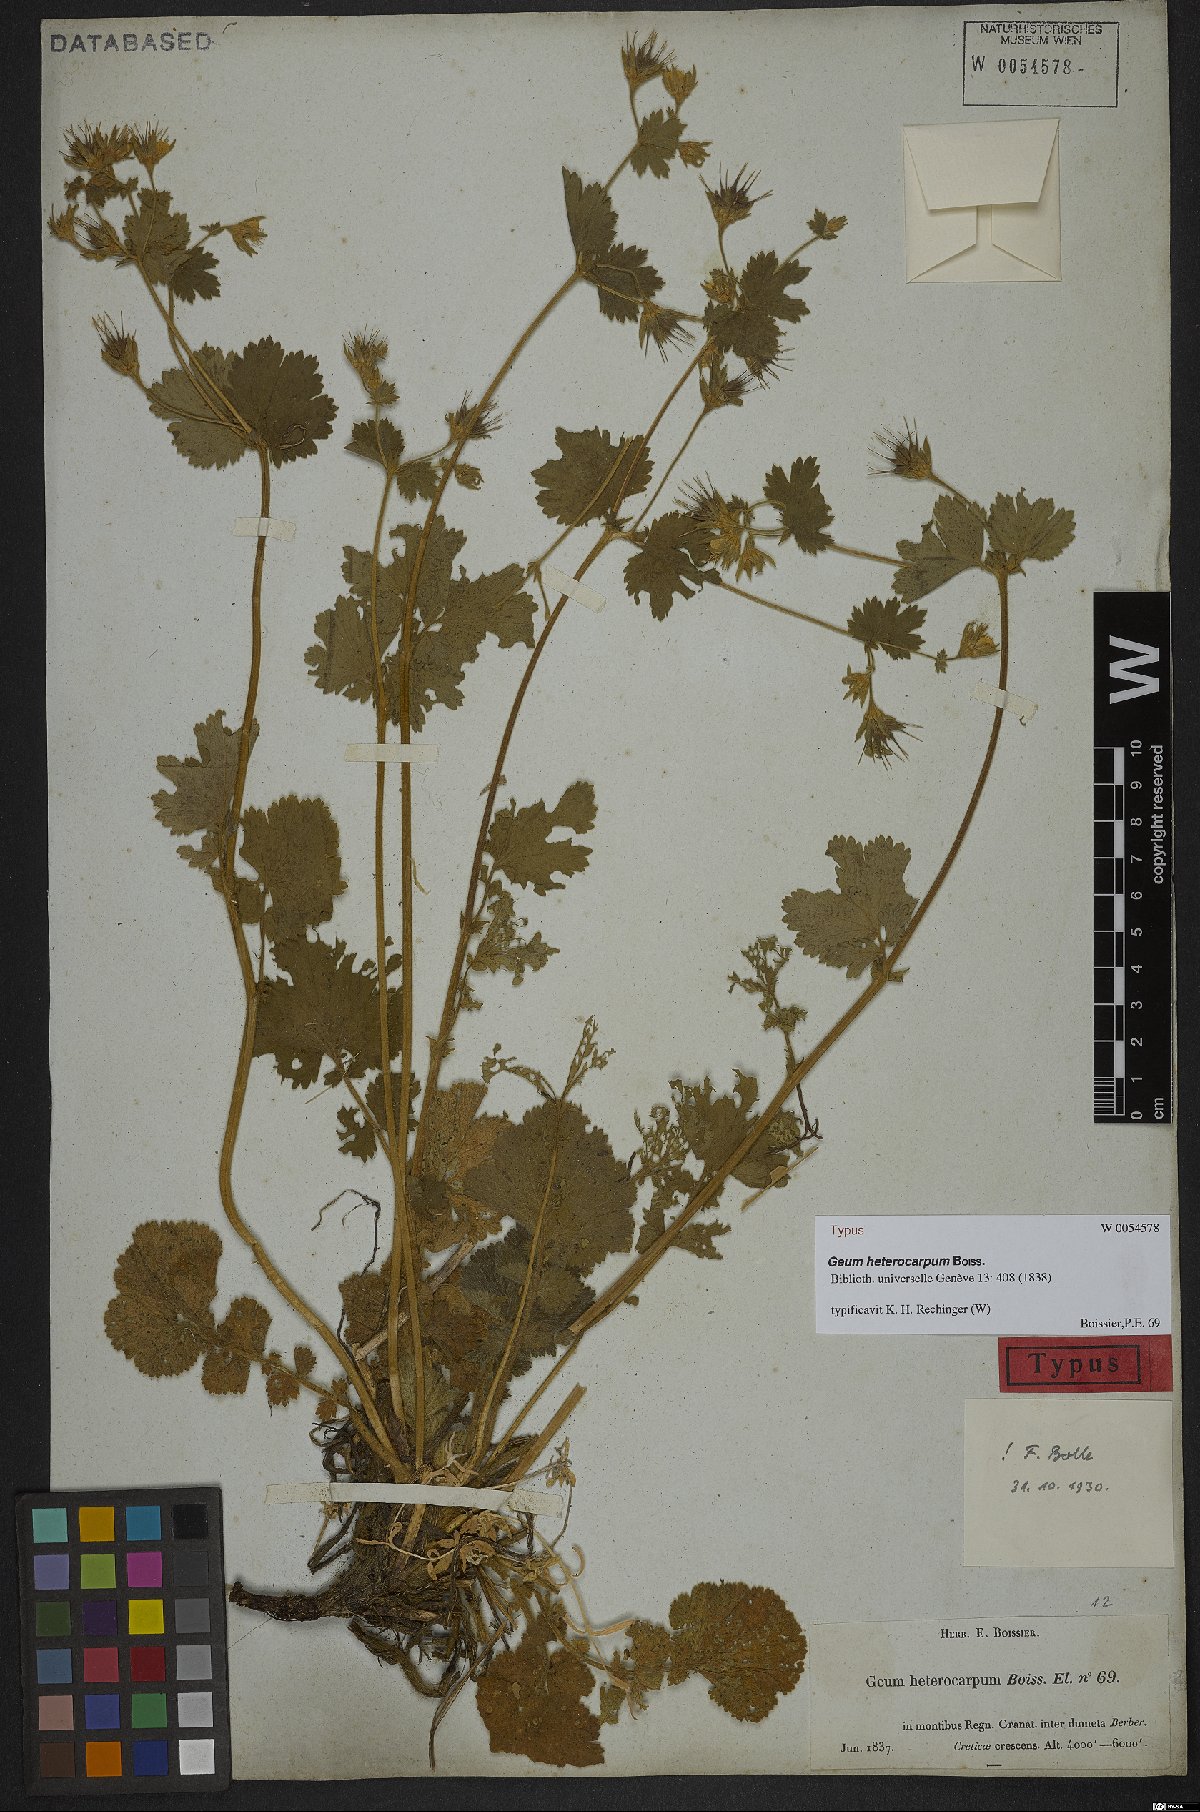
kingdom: Plantae
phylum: Tracheophyta
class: Magnoliopsida
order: Rosales
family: Rosaceae
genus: Geum
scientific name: Geum heterocarpum
